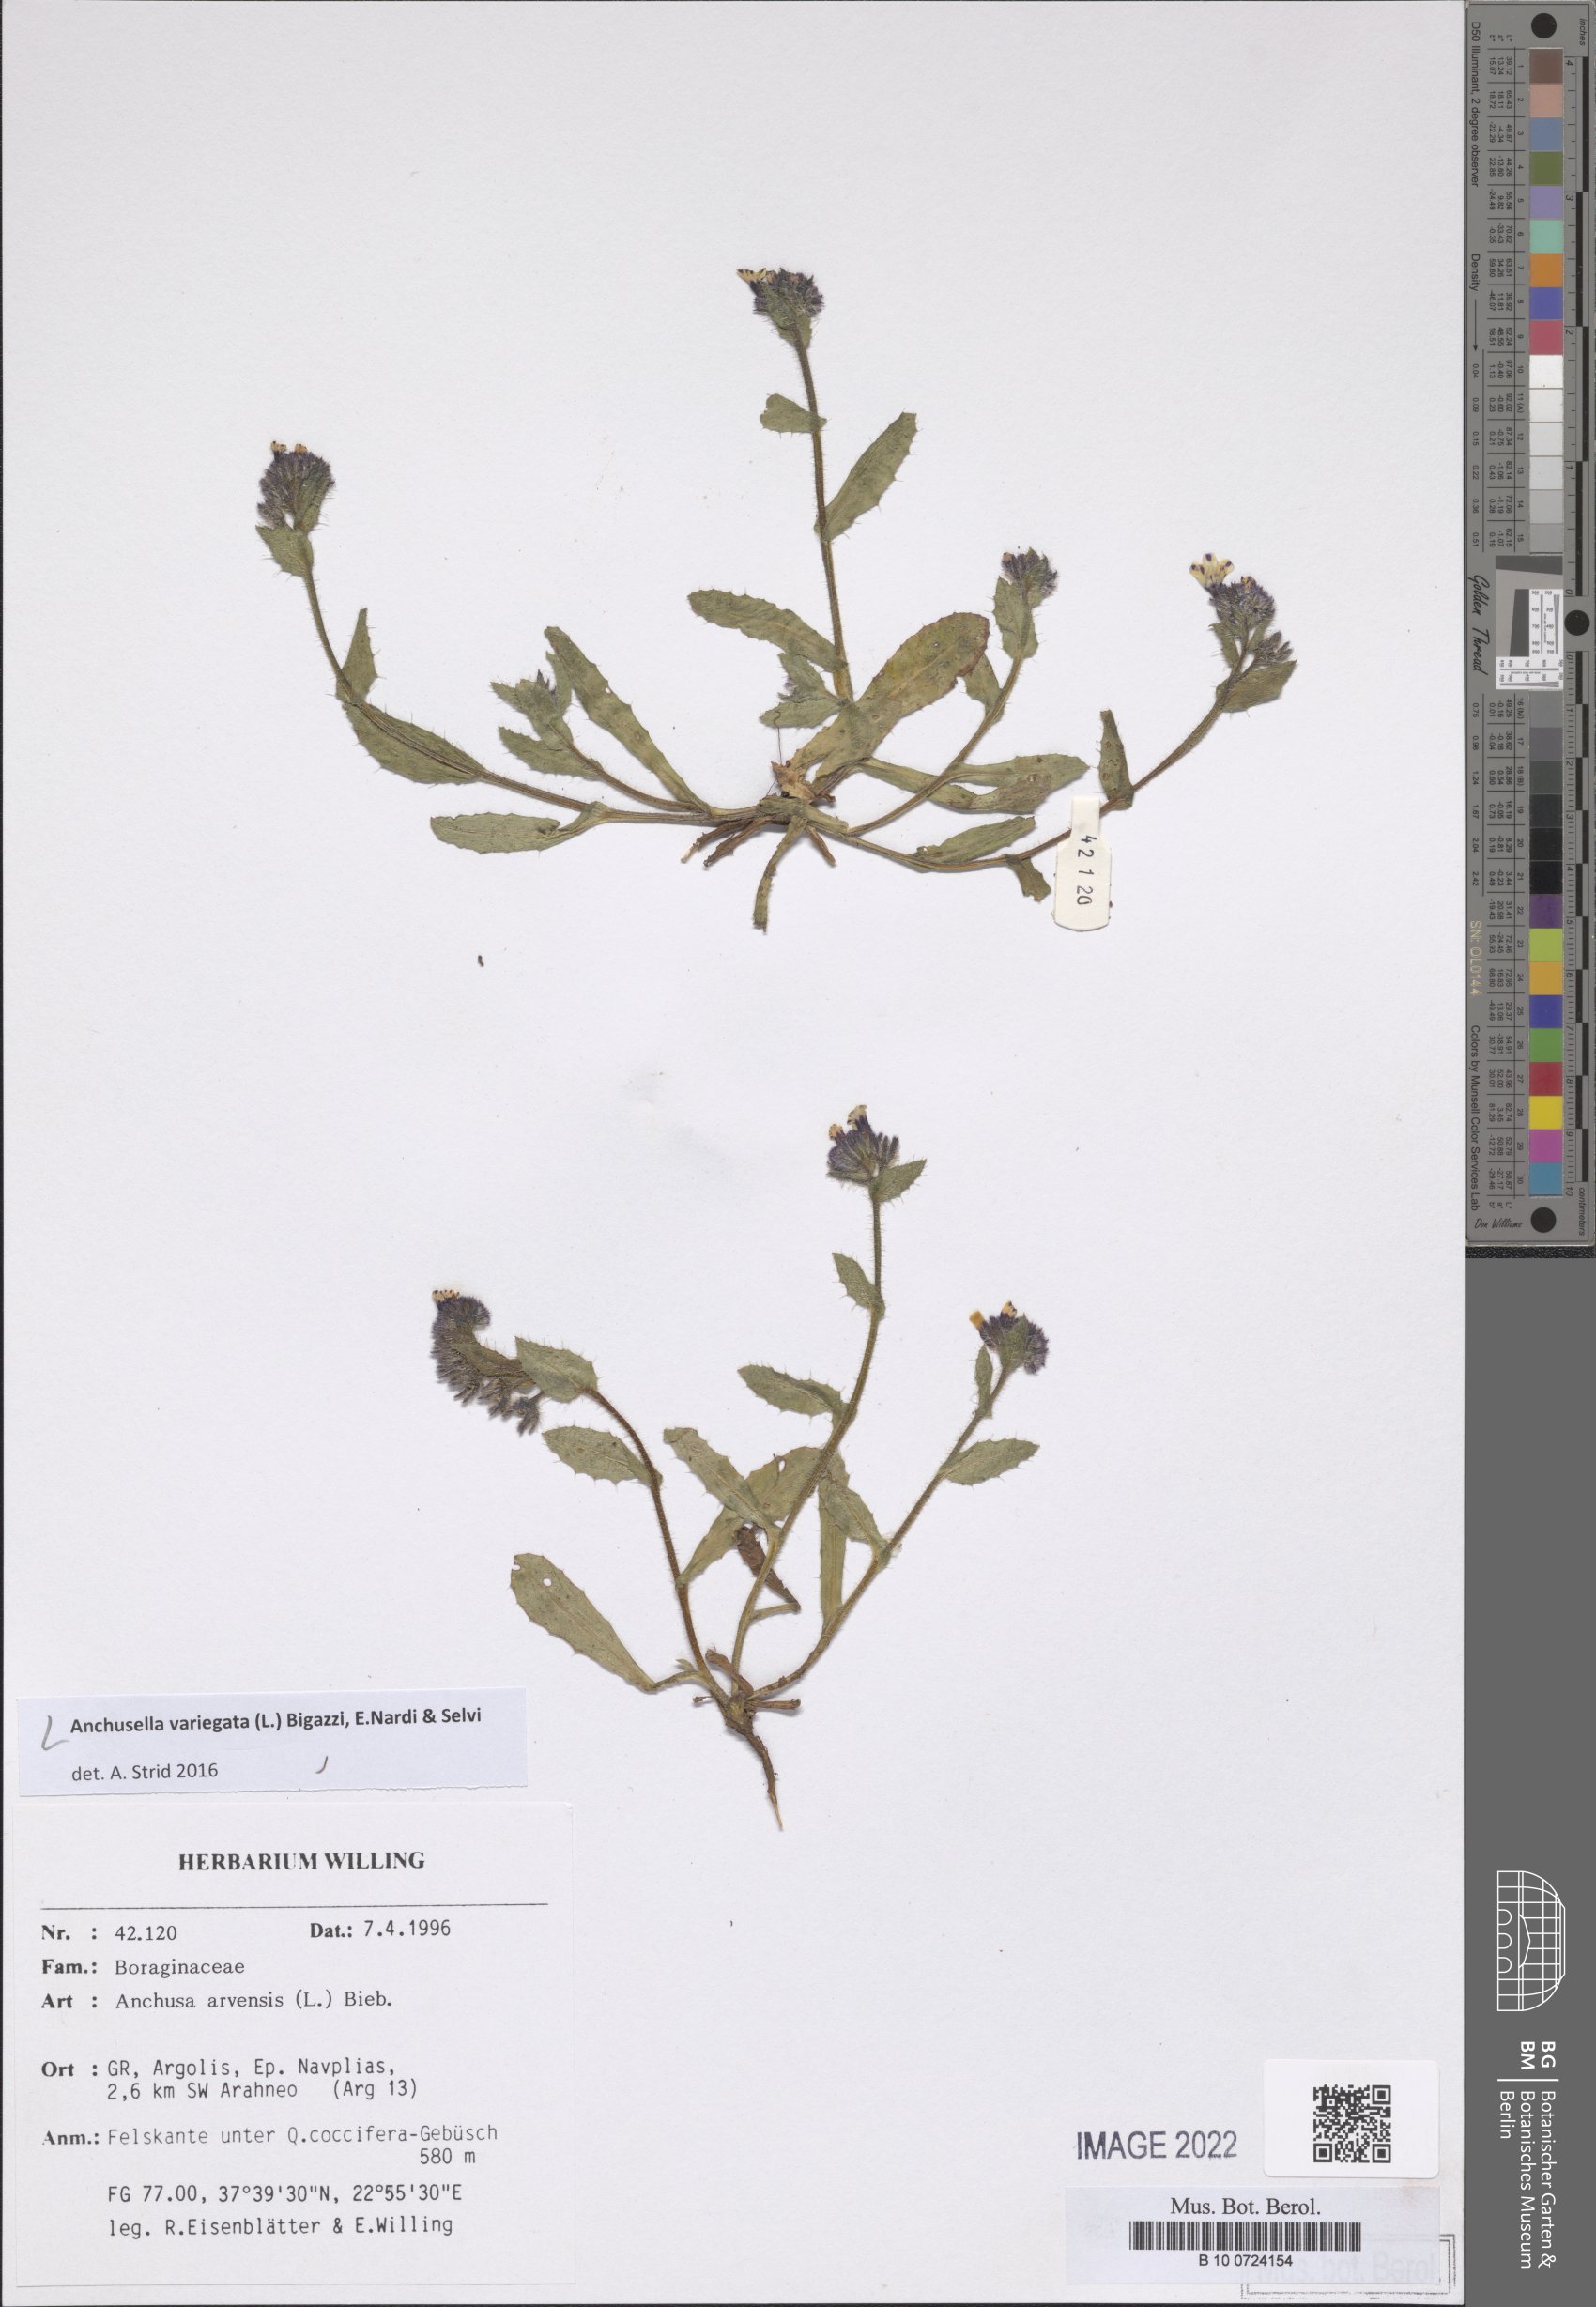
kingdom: Plantae
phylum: Tracheophyta
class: Magnoliopsida
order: Boraginales
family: Boraginaceae
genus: Anchusella
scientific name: Anchusella variegata
